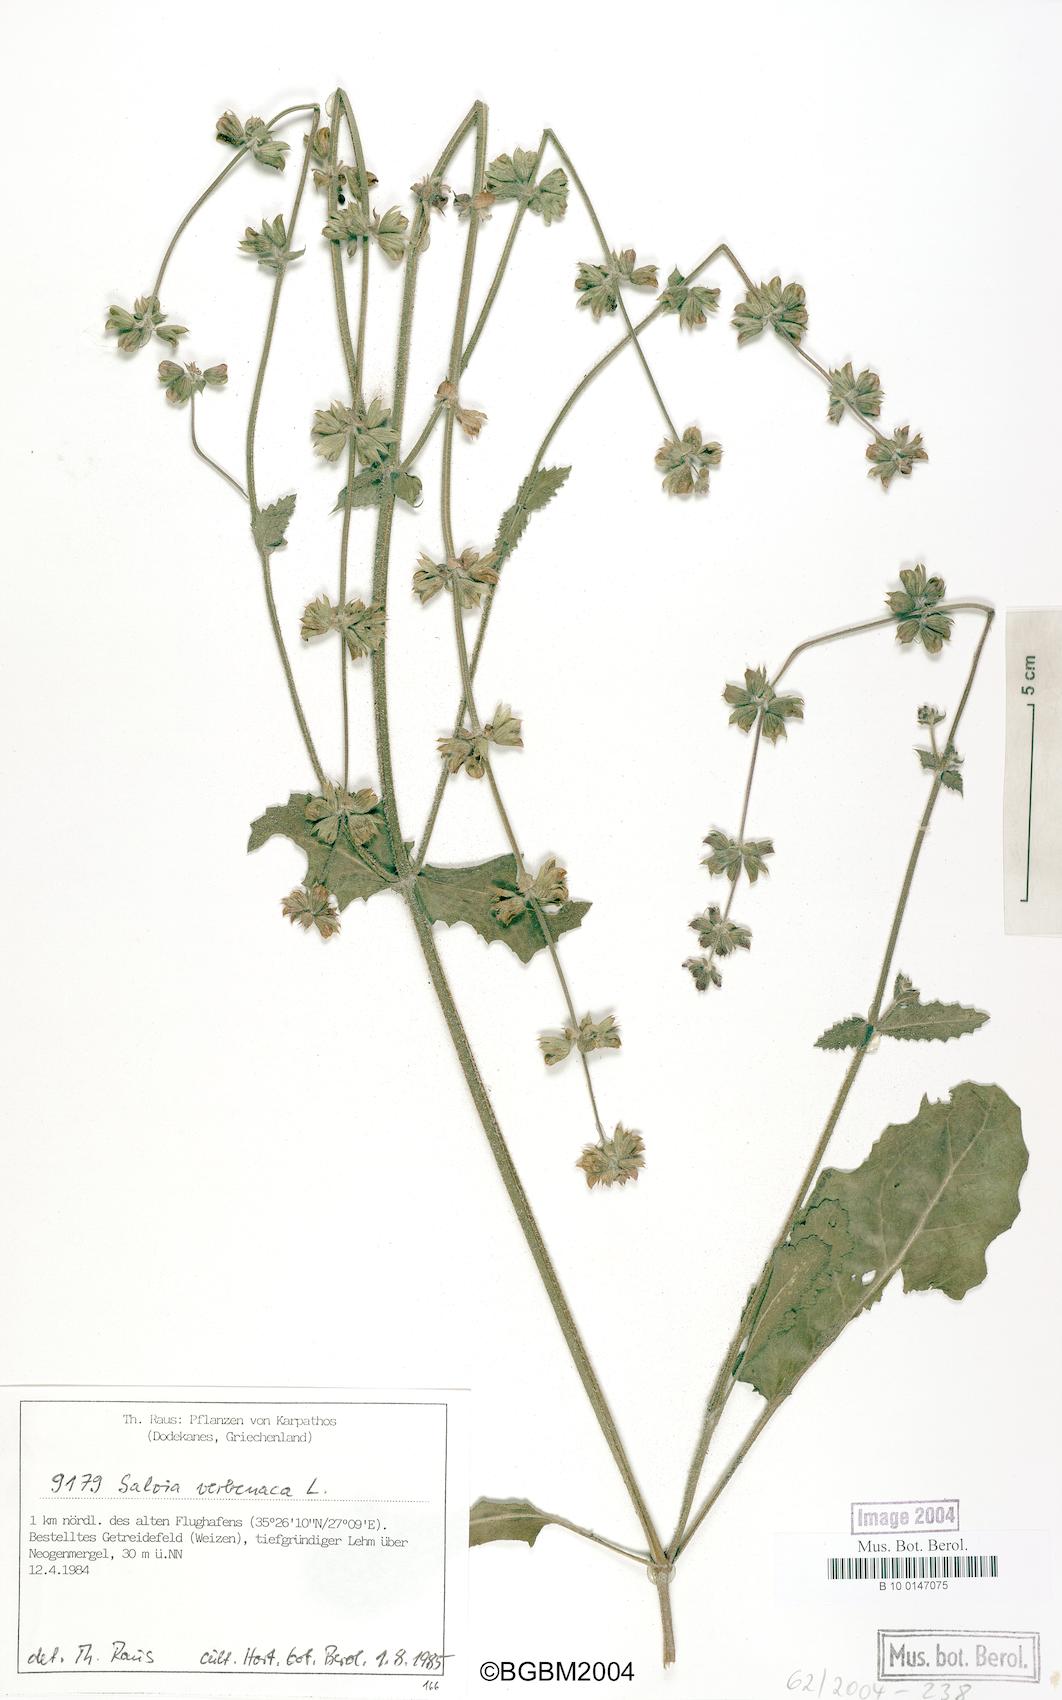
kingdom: Plantae
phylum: Tracheophyta
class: Magnoliopsida
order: Lamiales
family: Lamiaceae
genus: Salvia
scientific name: Salvia verbenaca
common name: Wild clary
